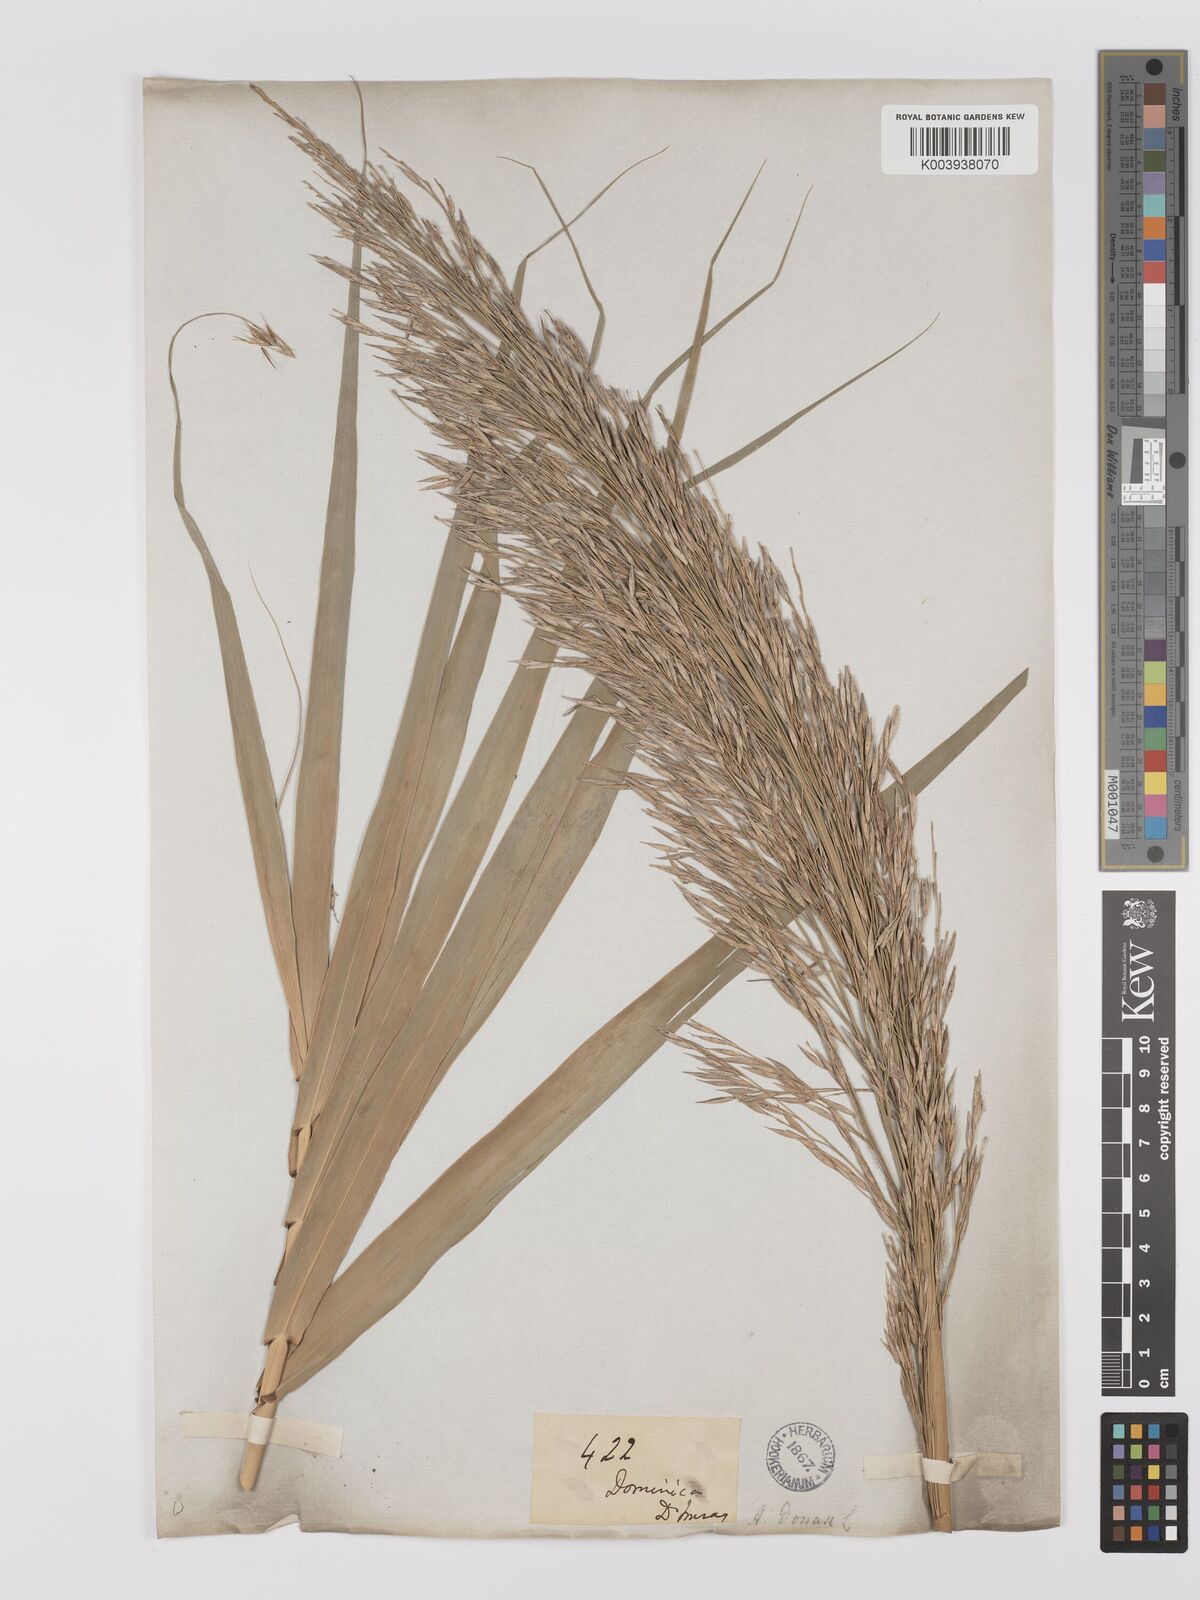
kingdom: Plantae
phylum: Tracheophyta
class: Liliopsida
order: Poales
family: Poaceae
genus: Arundo
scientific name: Arundo donax
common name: Giant reed
